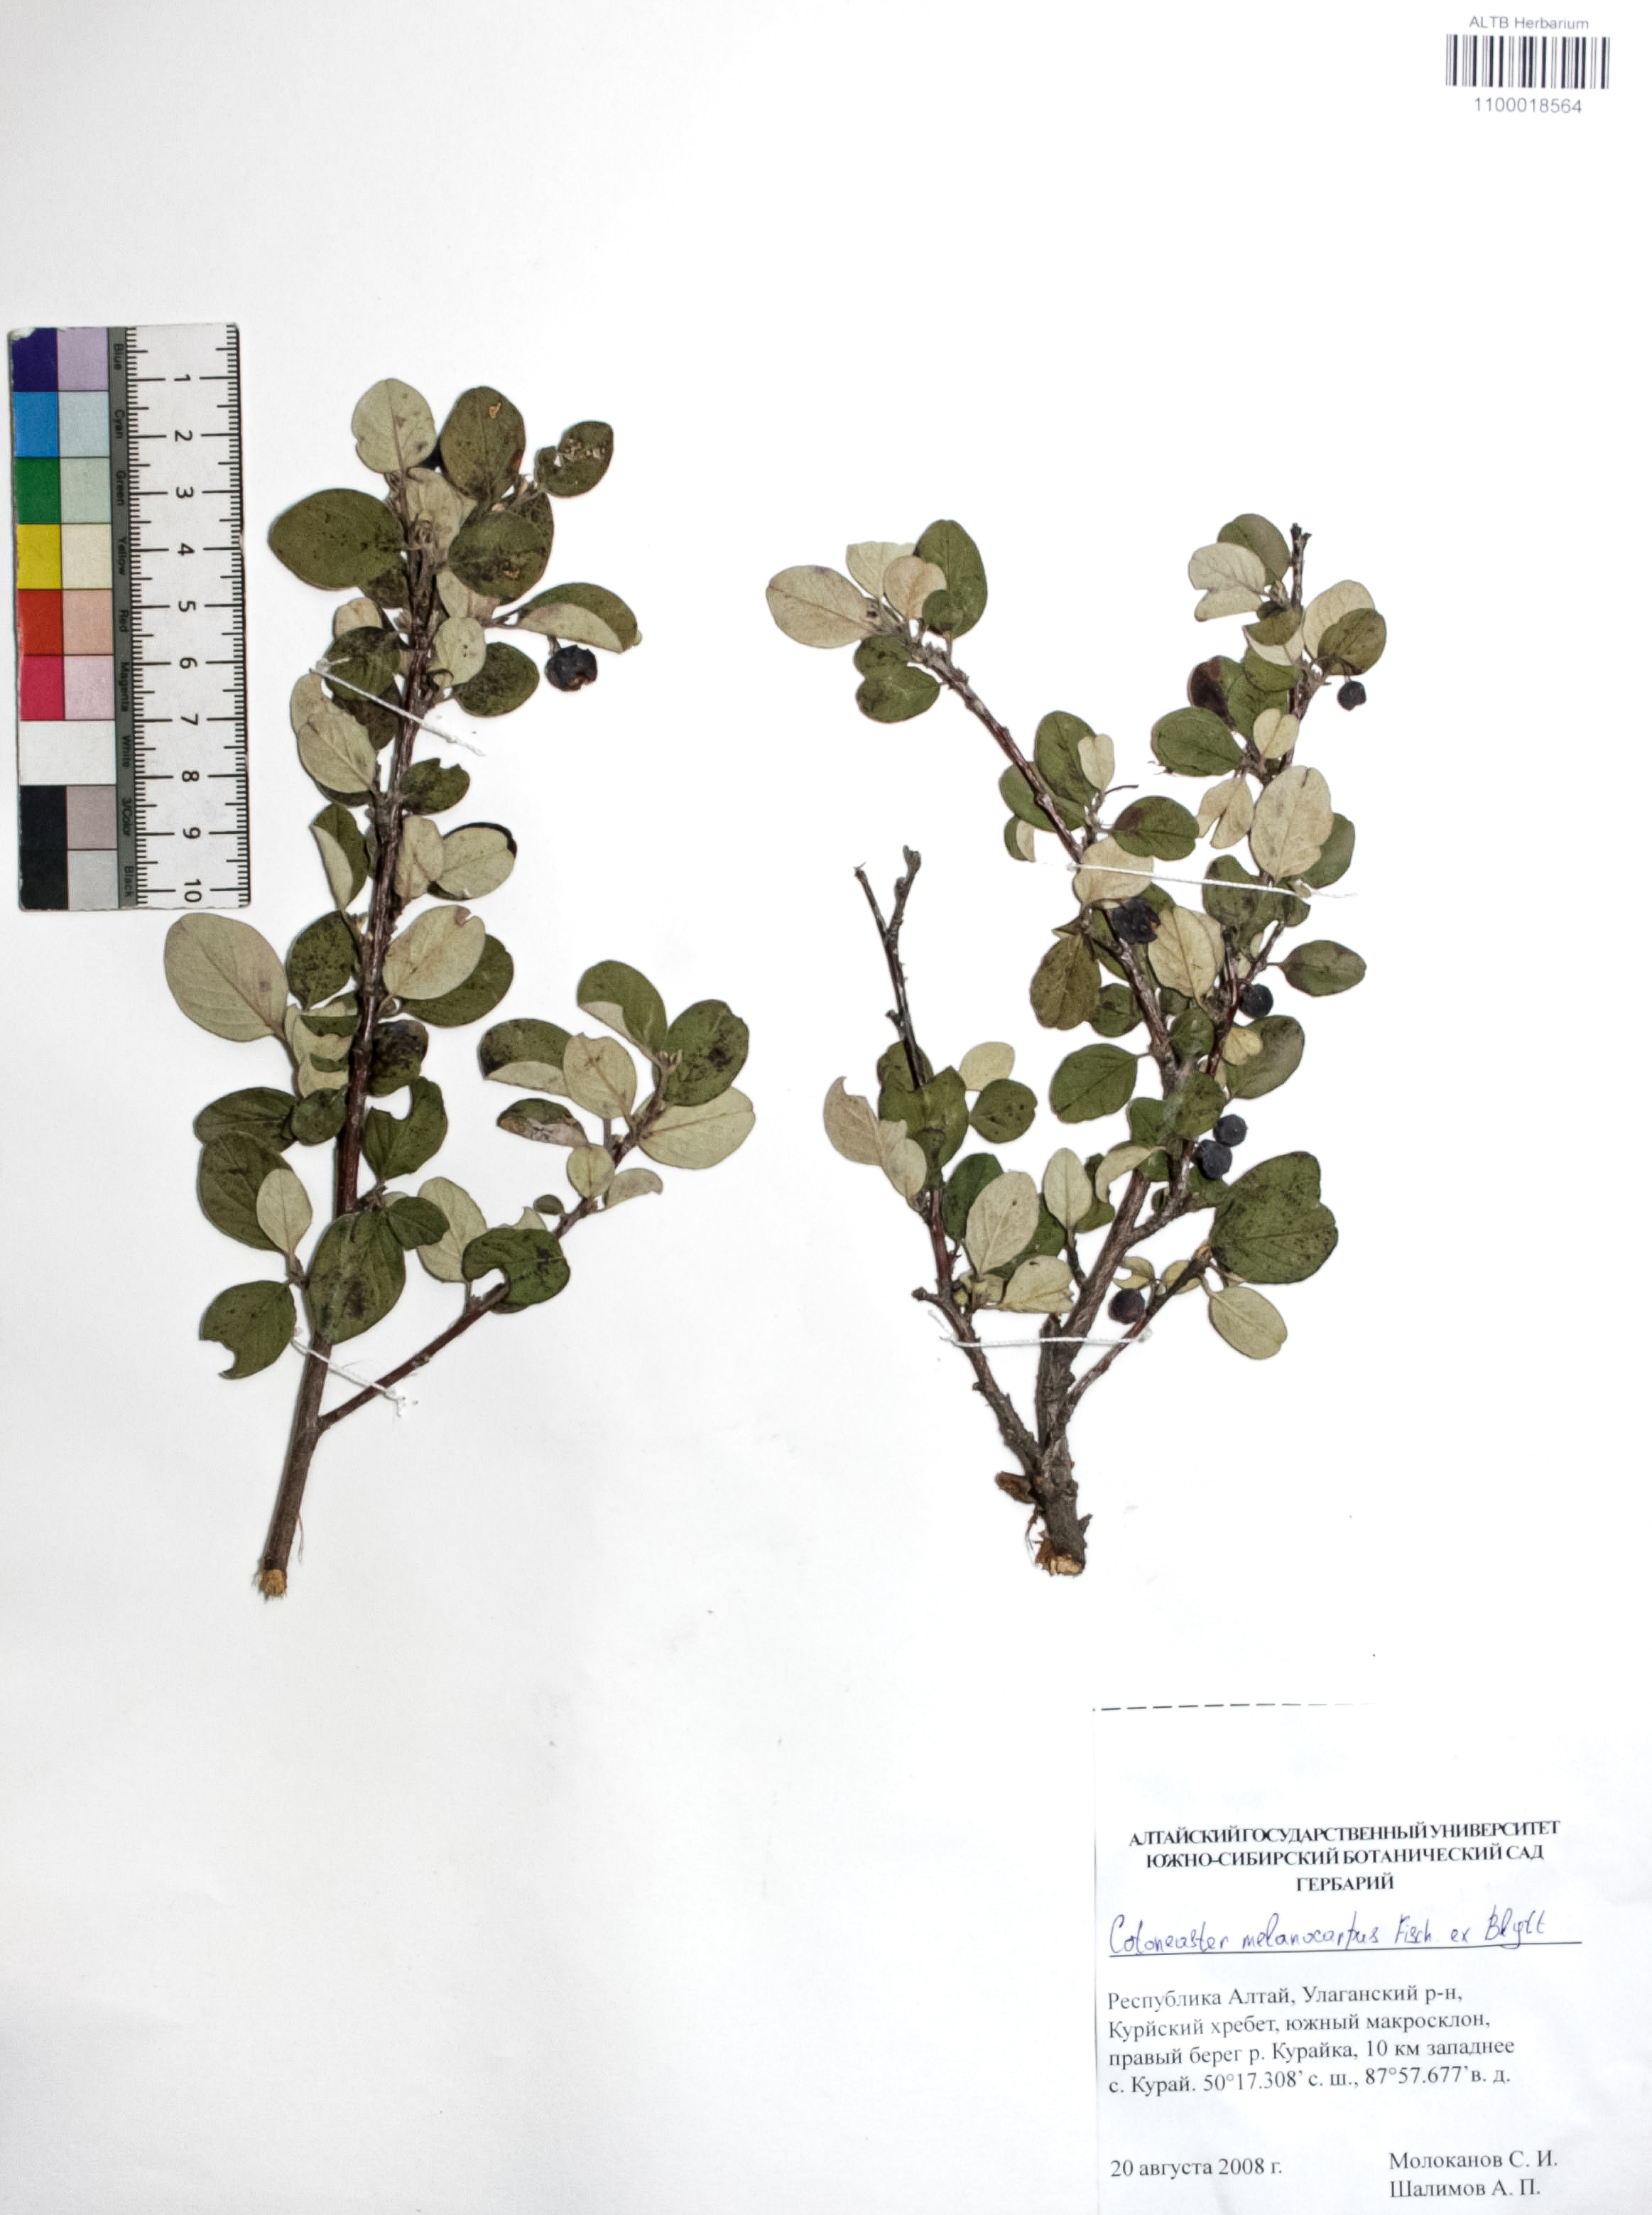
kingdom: Plantae
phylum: Tracheophyta
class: Magnoliopsida
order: Rosales
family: Rosaceae
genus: Cotoneaster
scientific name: Cotoneaster niger
